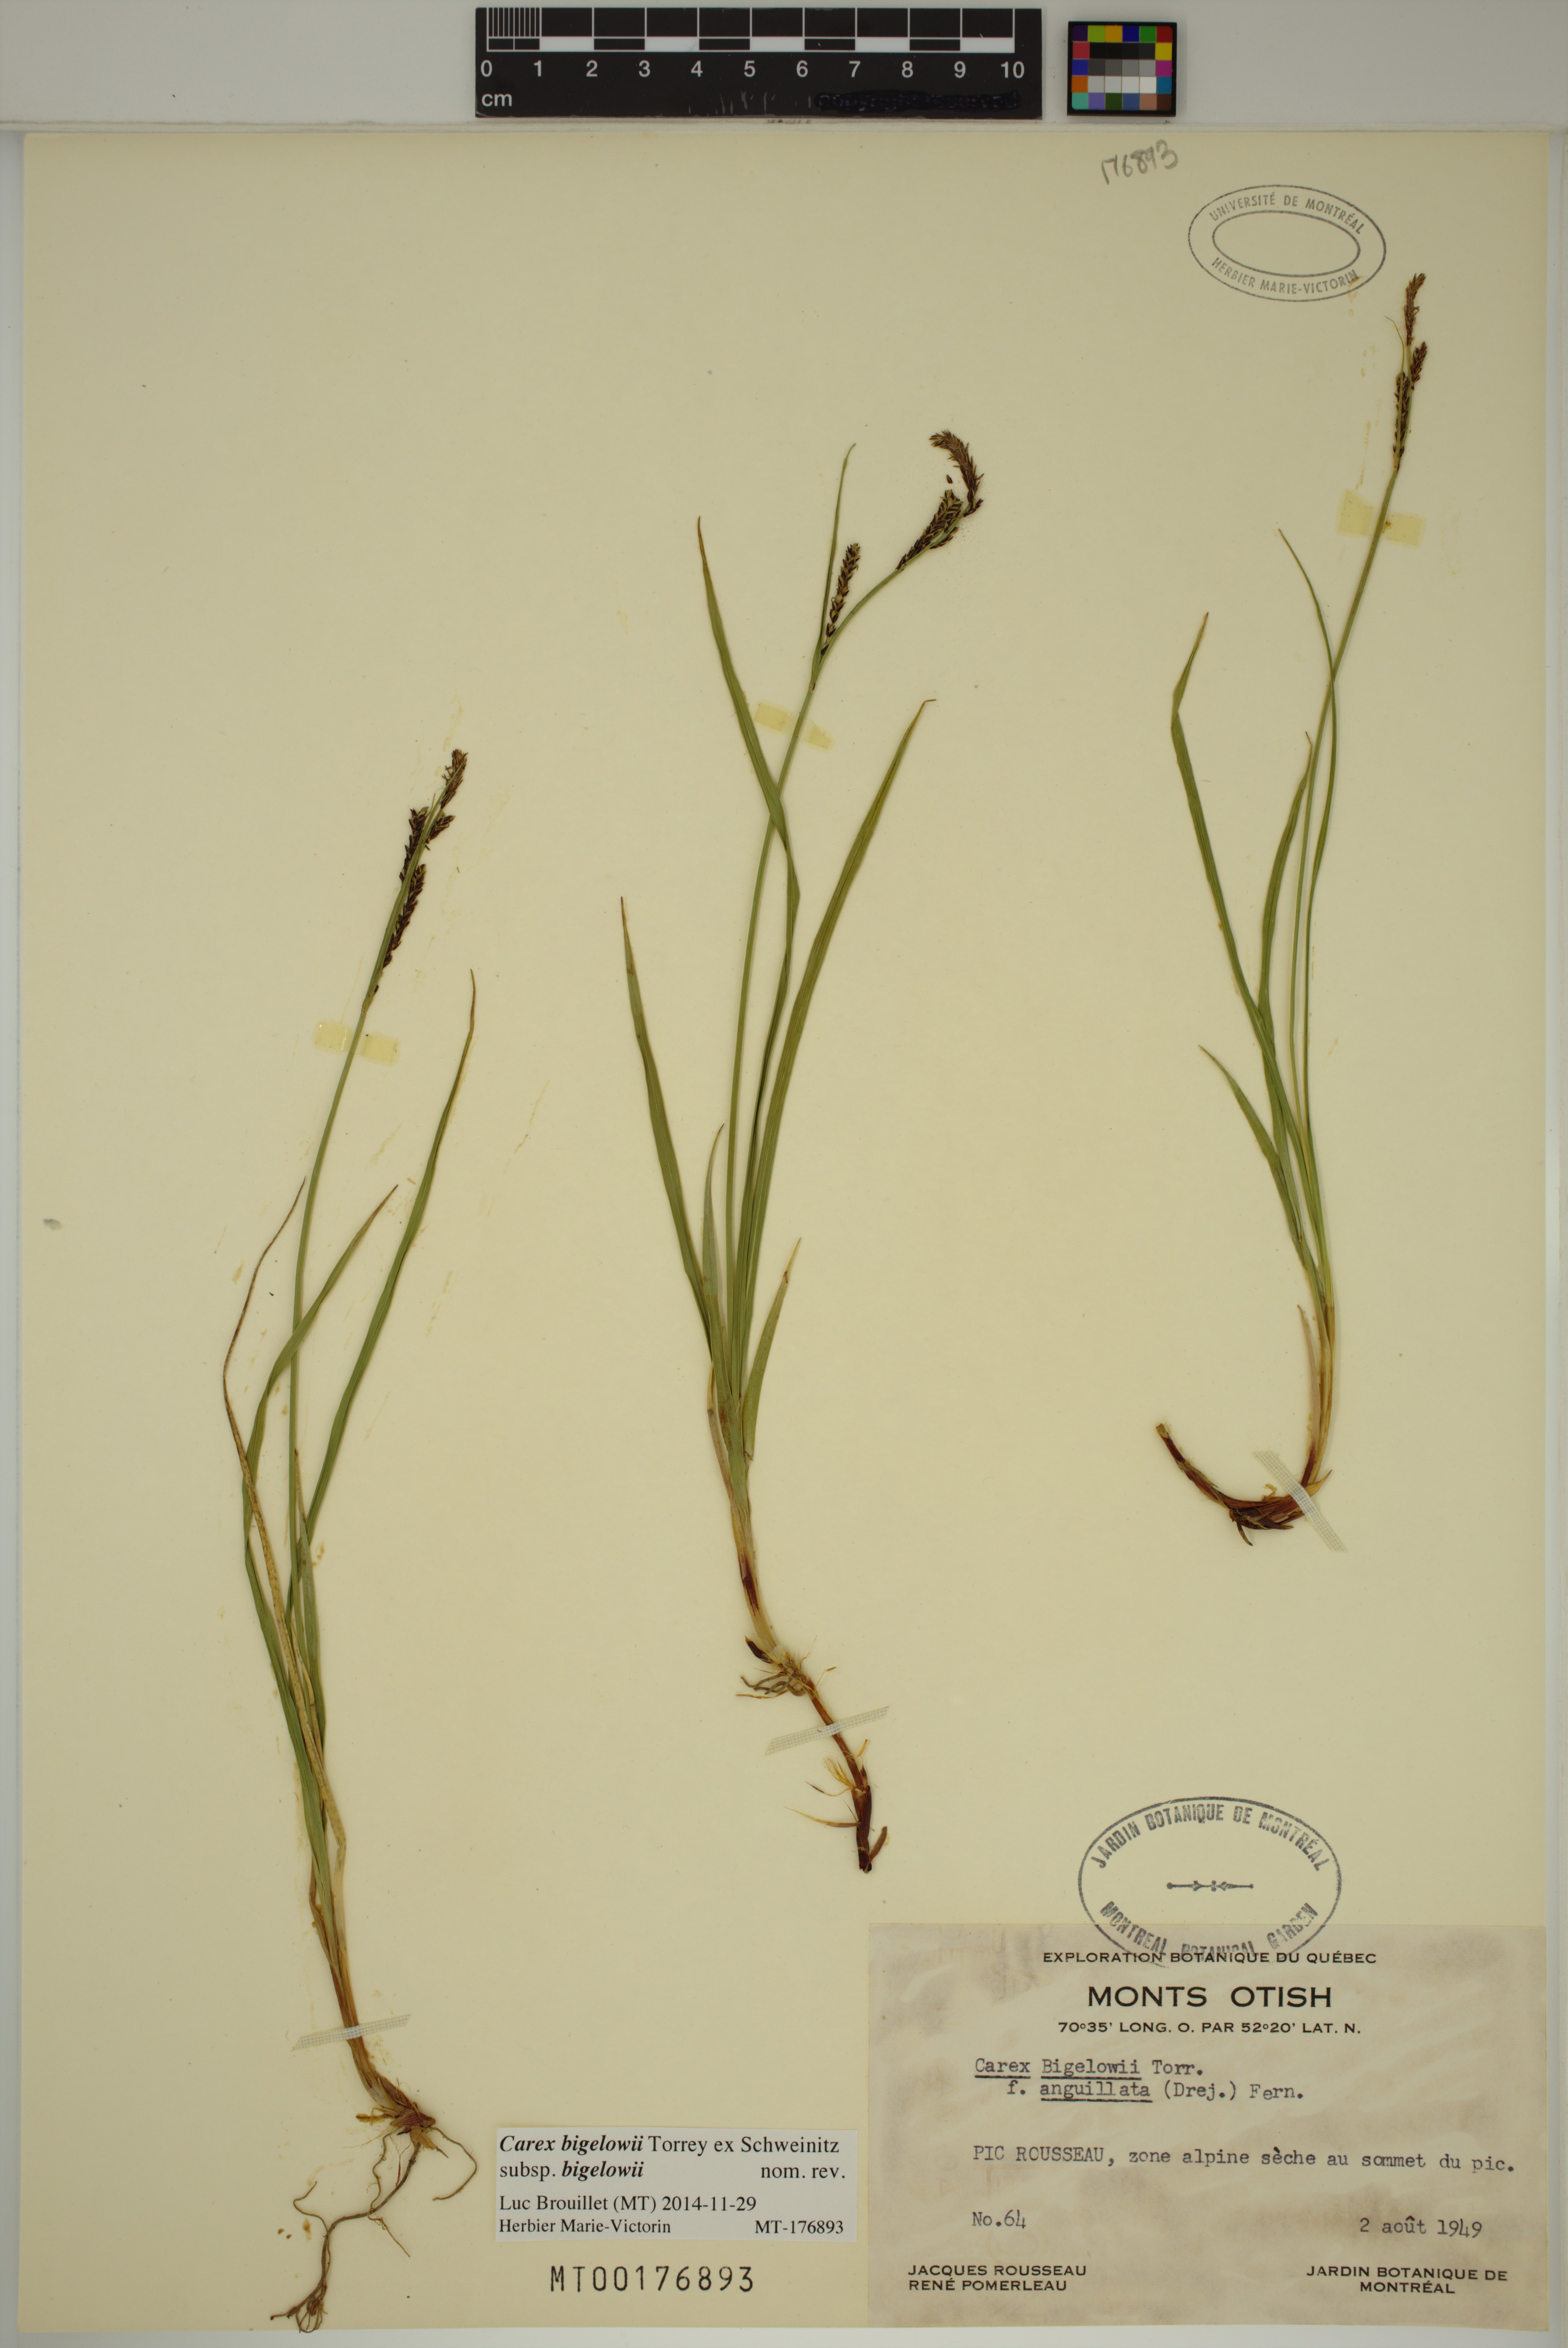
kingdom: Plantae
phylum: Tracheophyta
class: Liliopsida
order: Poales
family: Cyperaceae
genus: Carex
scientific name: Carex bigelowii
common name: Stiff sedge
